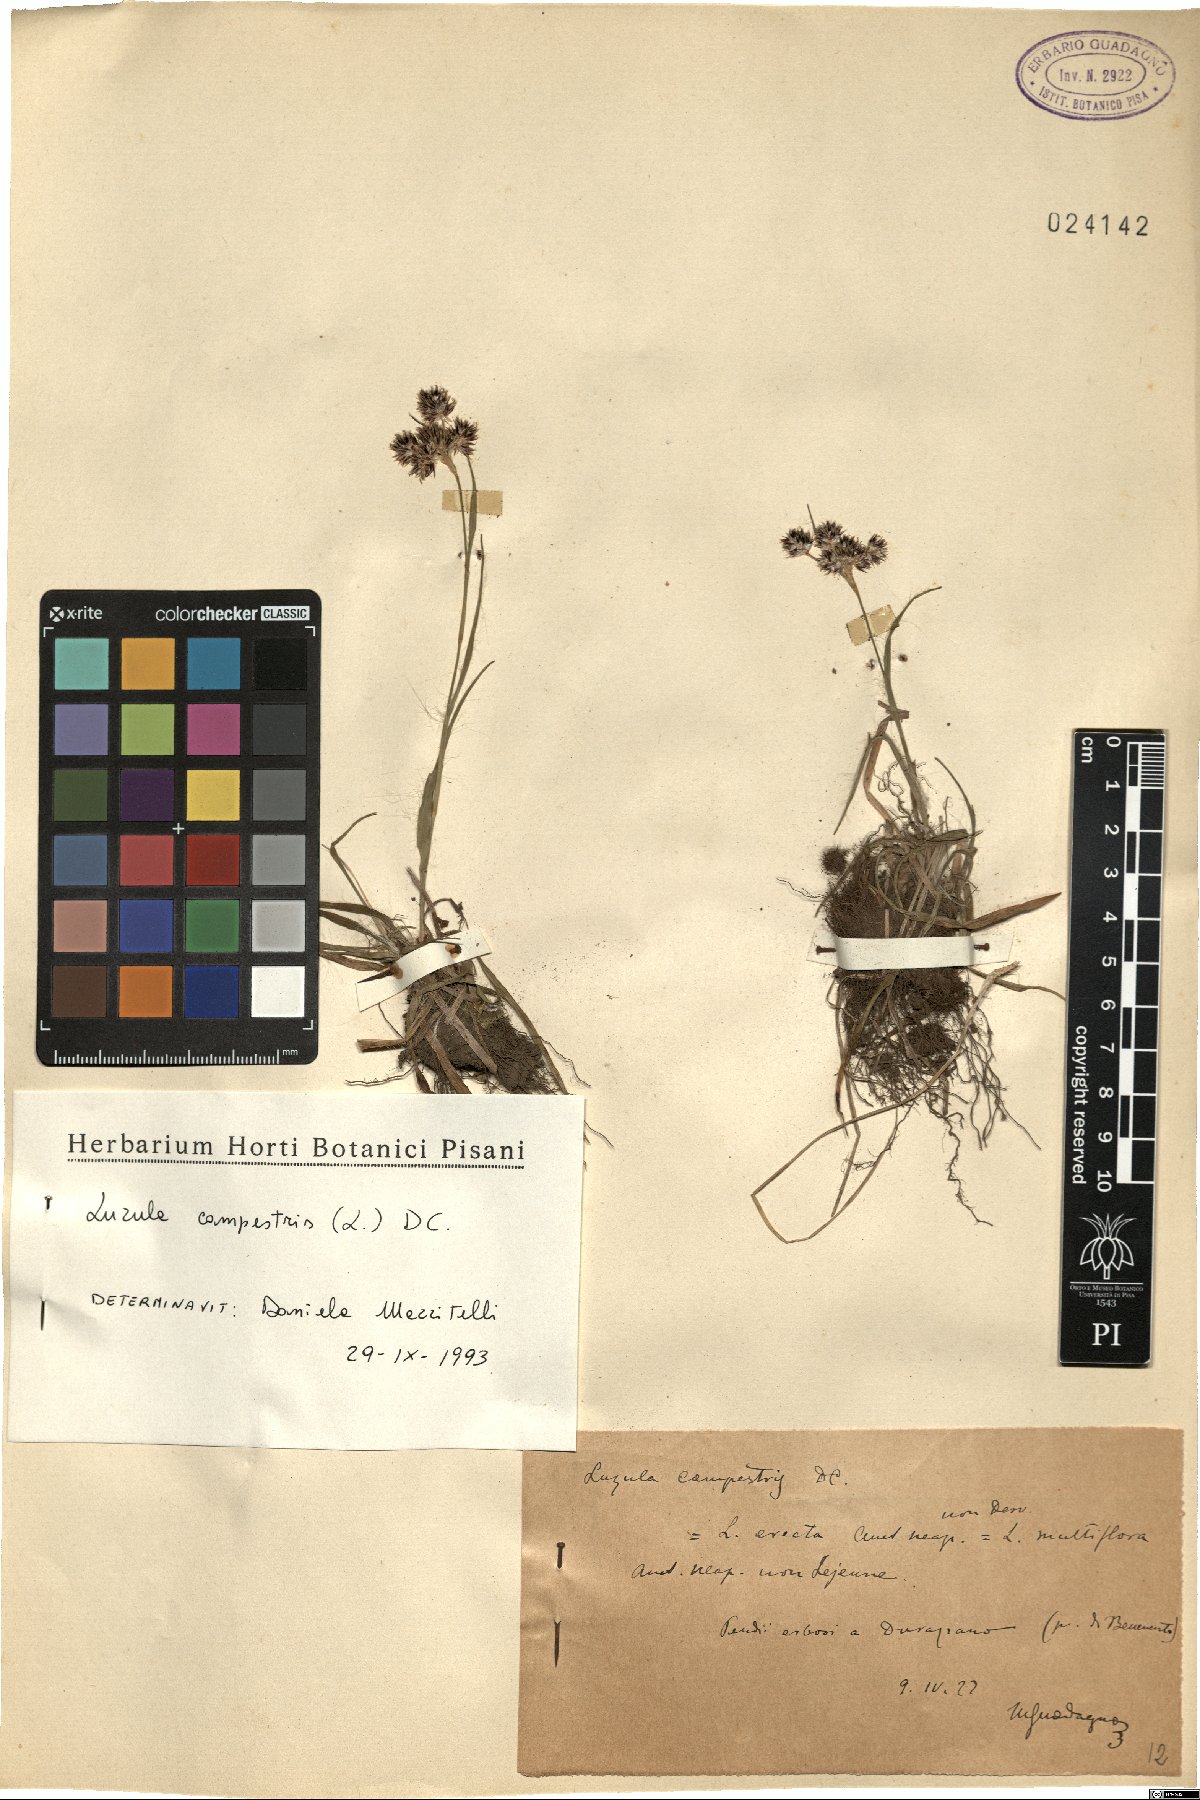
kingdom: Plantae
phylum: Tracheophyta
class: Liliopsida
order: Poales
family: Juncaceae
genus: Luzula
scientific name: Luzula campestris
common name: Field wood-rush
